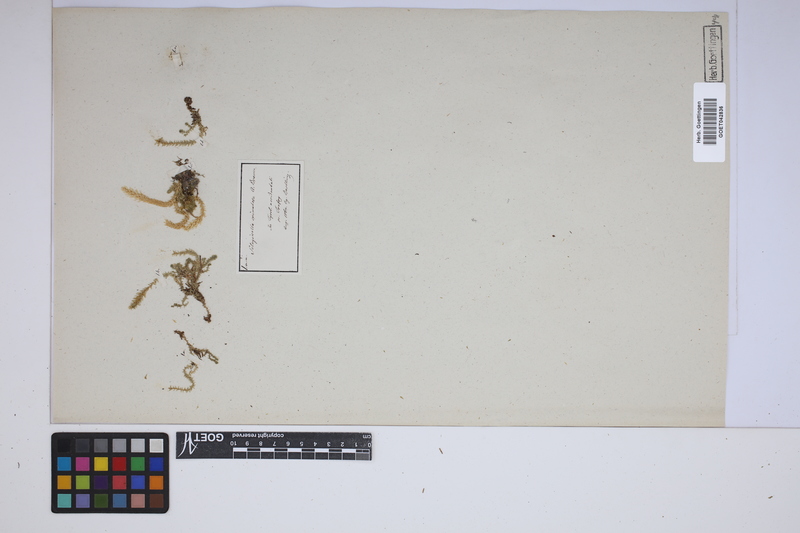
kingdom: Plantae
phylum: Tracheophyta
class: Lycopodiopsida
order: Selaginellales
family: Selaginellaceae
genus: Selaginella
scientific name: Selaginella selaginoides
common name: Prickly mountain-moss
